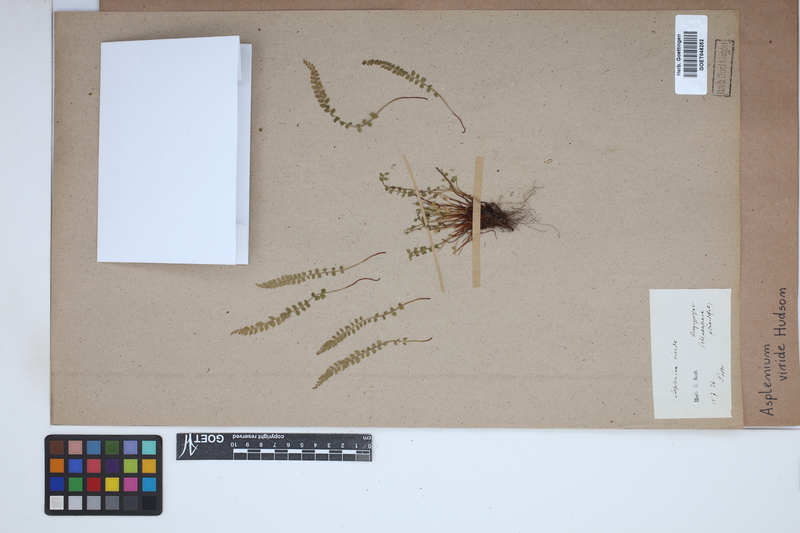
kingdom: Plantae
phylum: Tracheophyta
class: Polypodiopsida
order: Polypodiales
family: Aspleniaceae
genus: Asplenium
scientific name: Asplenium viride
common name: Green spleenwort
